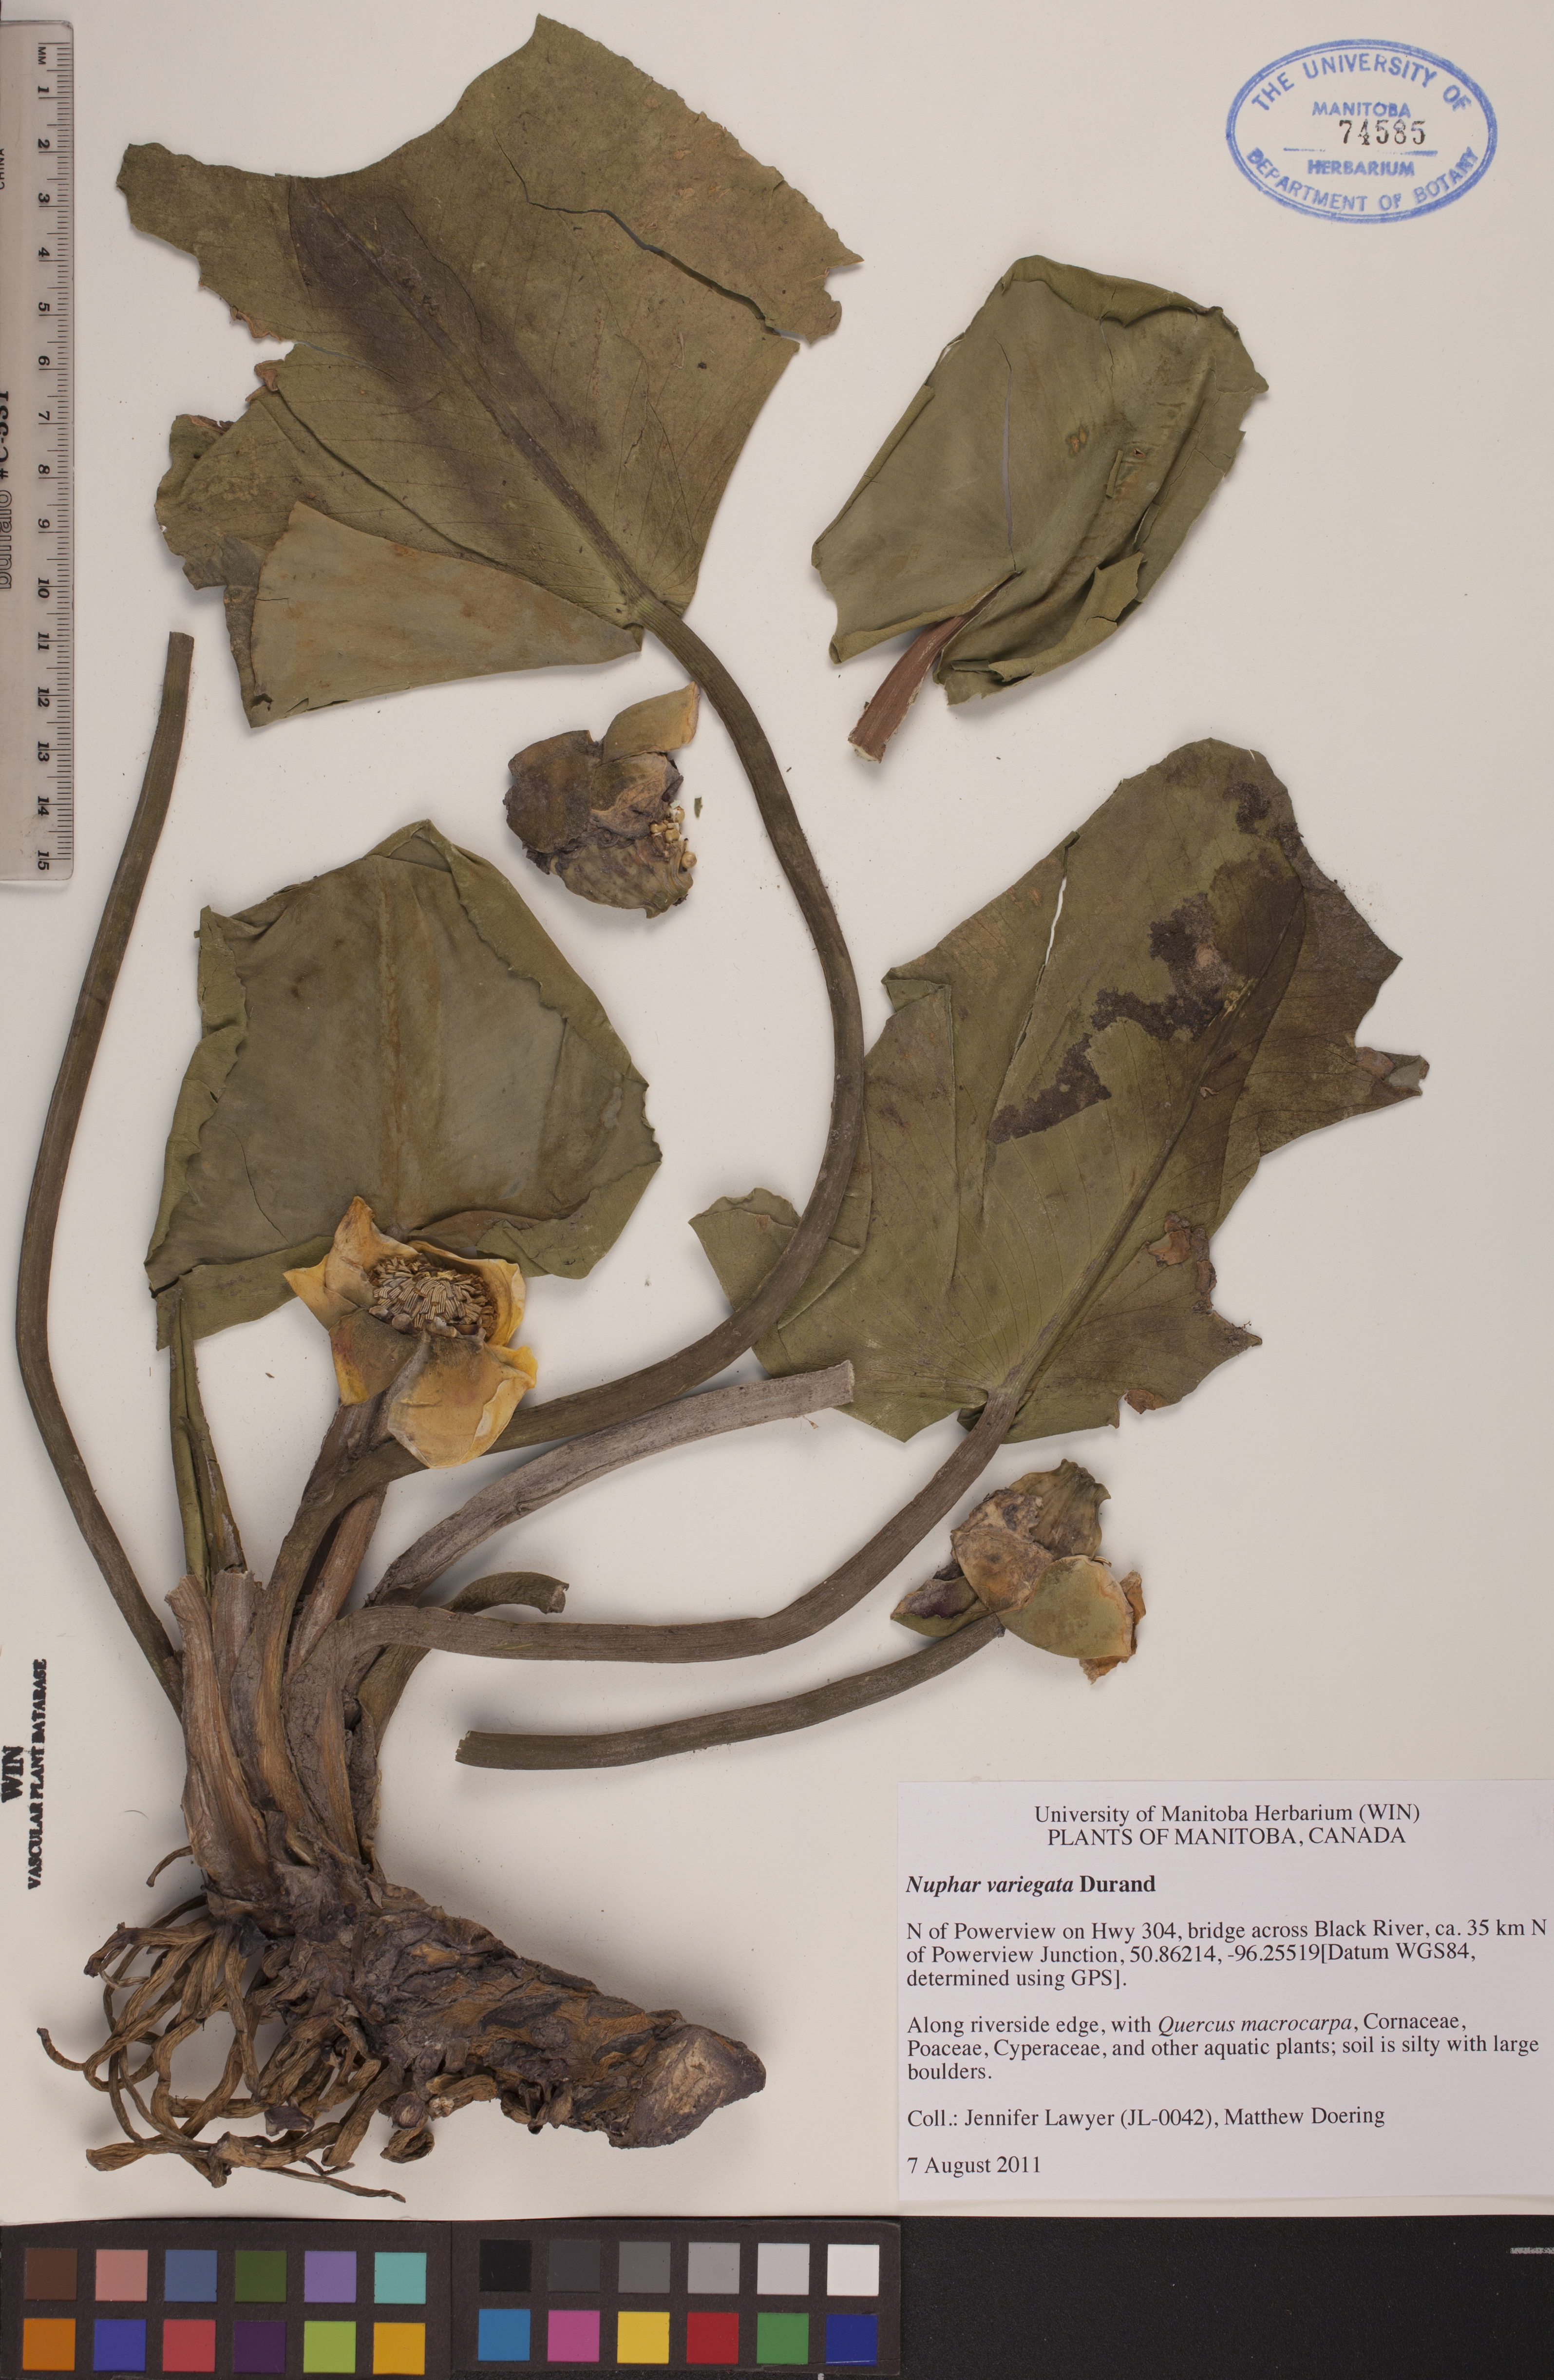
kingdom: Plantae
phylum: Tracheophyta
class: Magnoliopsida
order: Nymphaeales
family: Nymphaeaceae
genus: Nuphar
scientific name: Nuphar variegata
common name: Beaver-root
